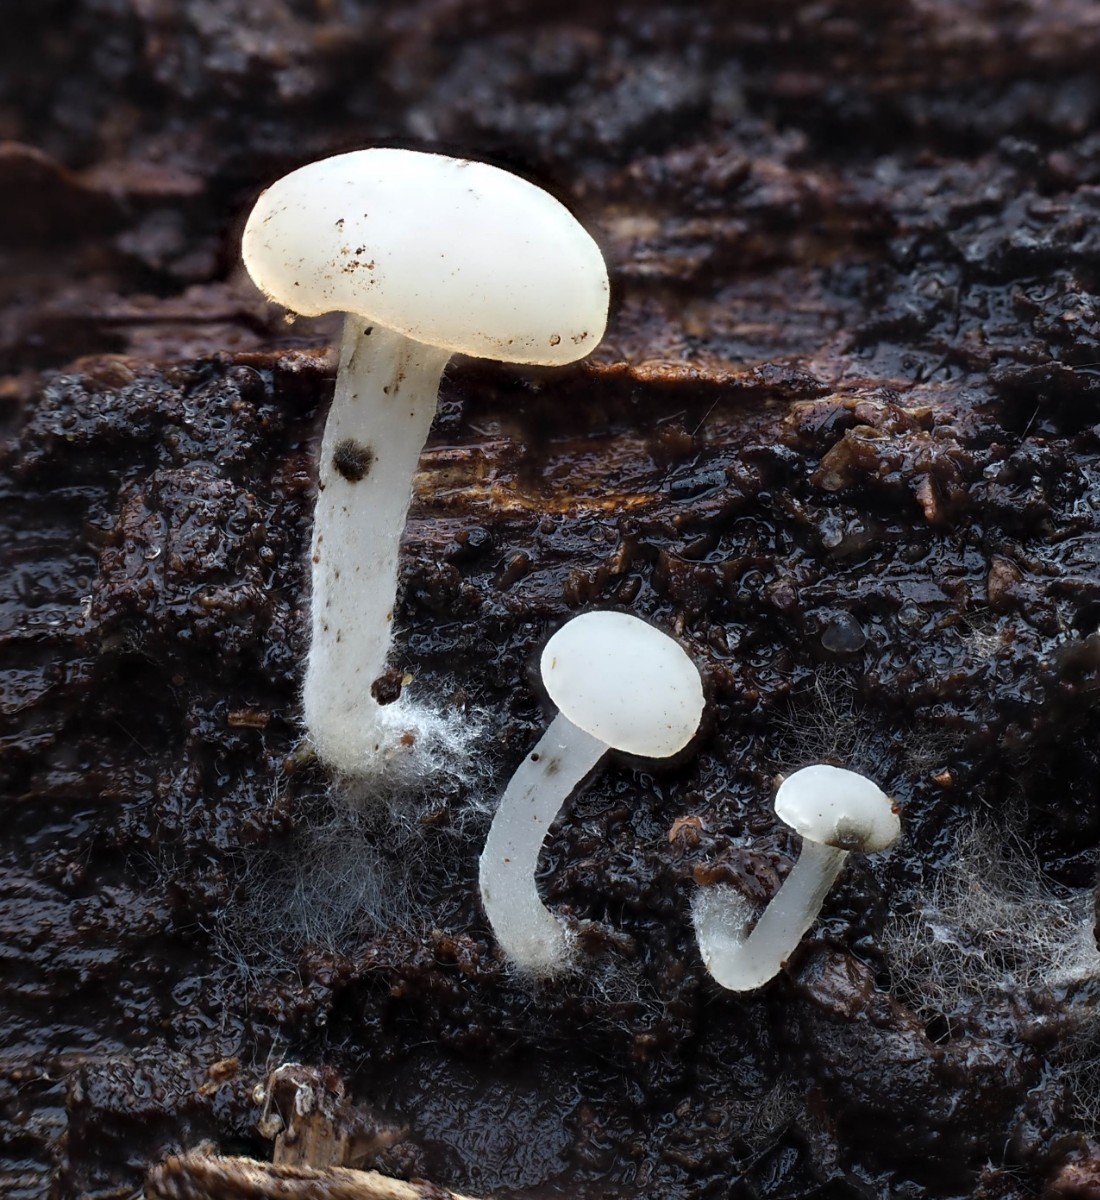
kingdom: Fungi
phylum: Ascomycota
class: Leotiomycetes
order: Helotiales
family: Tricladiaceae
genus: Cudoniella
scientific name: Cudoniella acicularis
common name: ege-dyndskive
